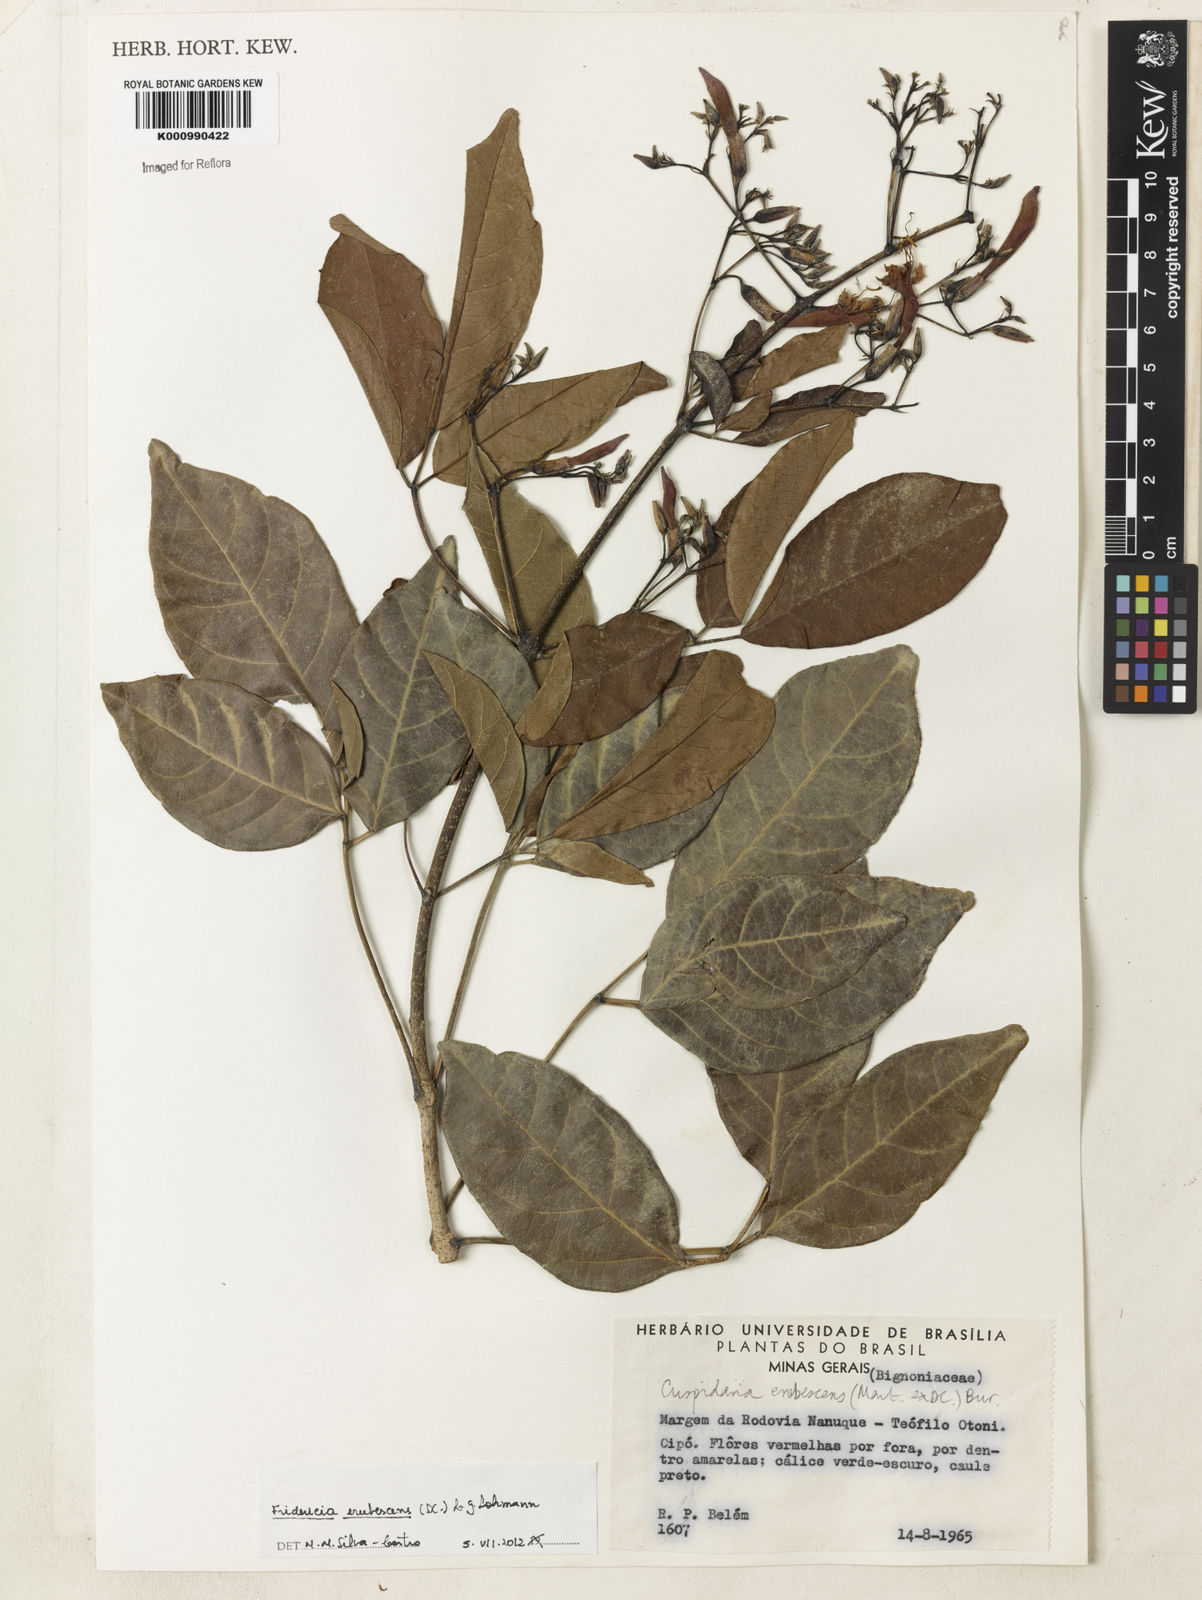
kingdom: Plantae
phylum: Tracheophyta
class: Magnoliopsida
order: Lamiales
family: Bignoniaceae
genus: Fridericia
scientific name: Fridericia erubescens
